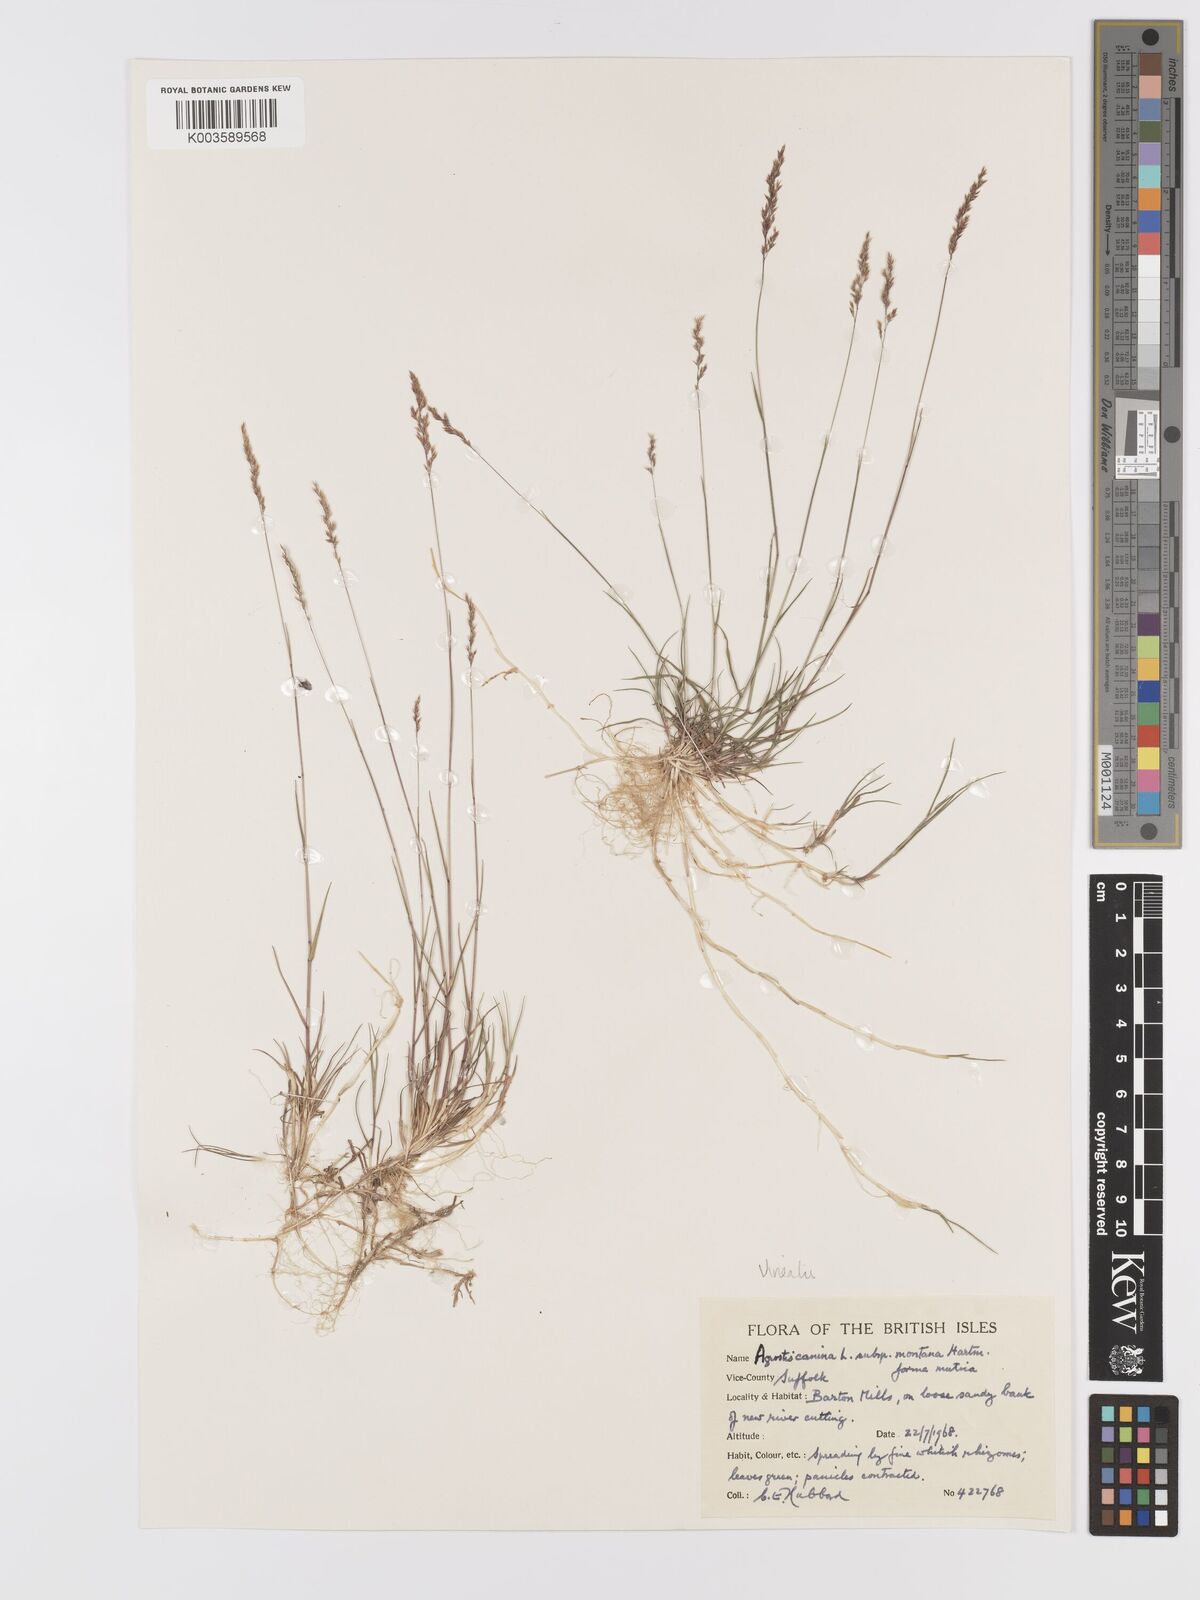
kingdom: Plantae
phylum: Tracheophyta
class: Liliopsida
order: Poales
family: Poaceae
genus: Agrostis
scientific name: Agrostis
